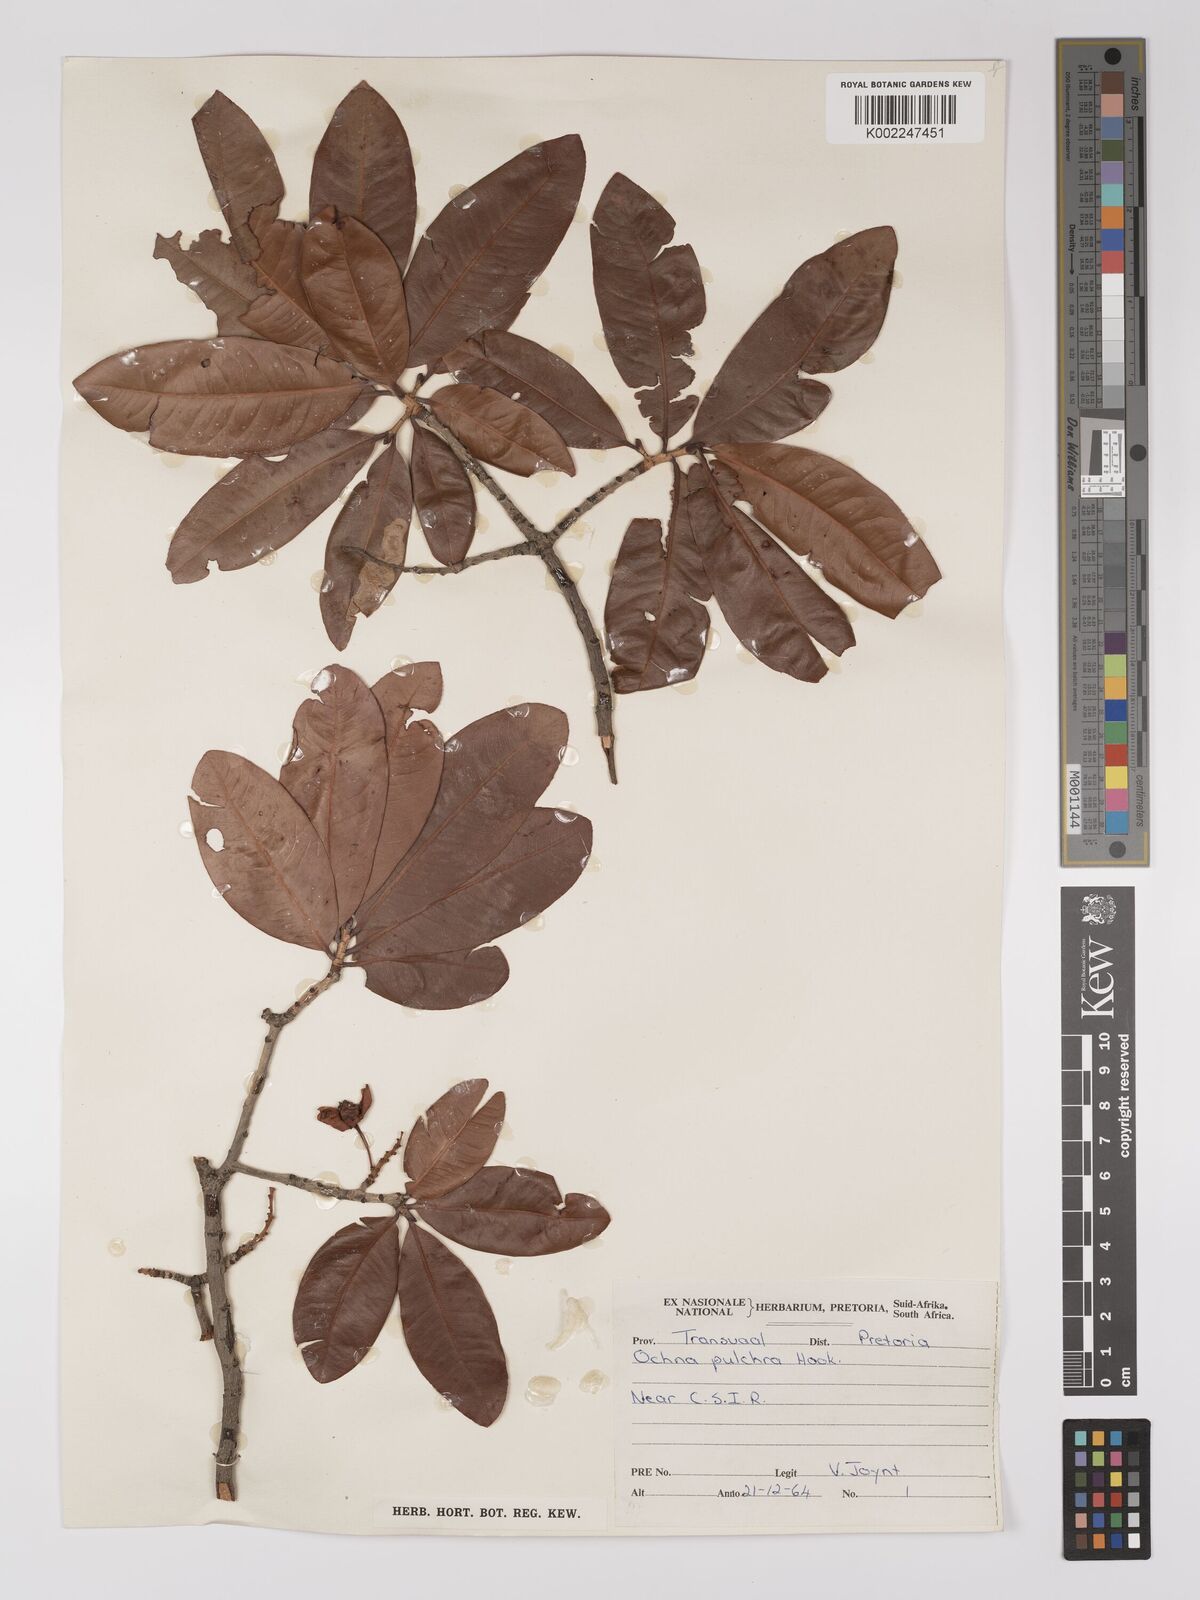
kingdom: Plantae
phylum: Tracheophyta
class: Magnoliopsida
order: Malpighiales
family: Ochnaceae
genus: Ochna
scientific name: Ochna pulchra
